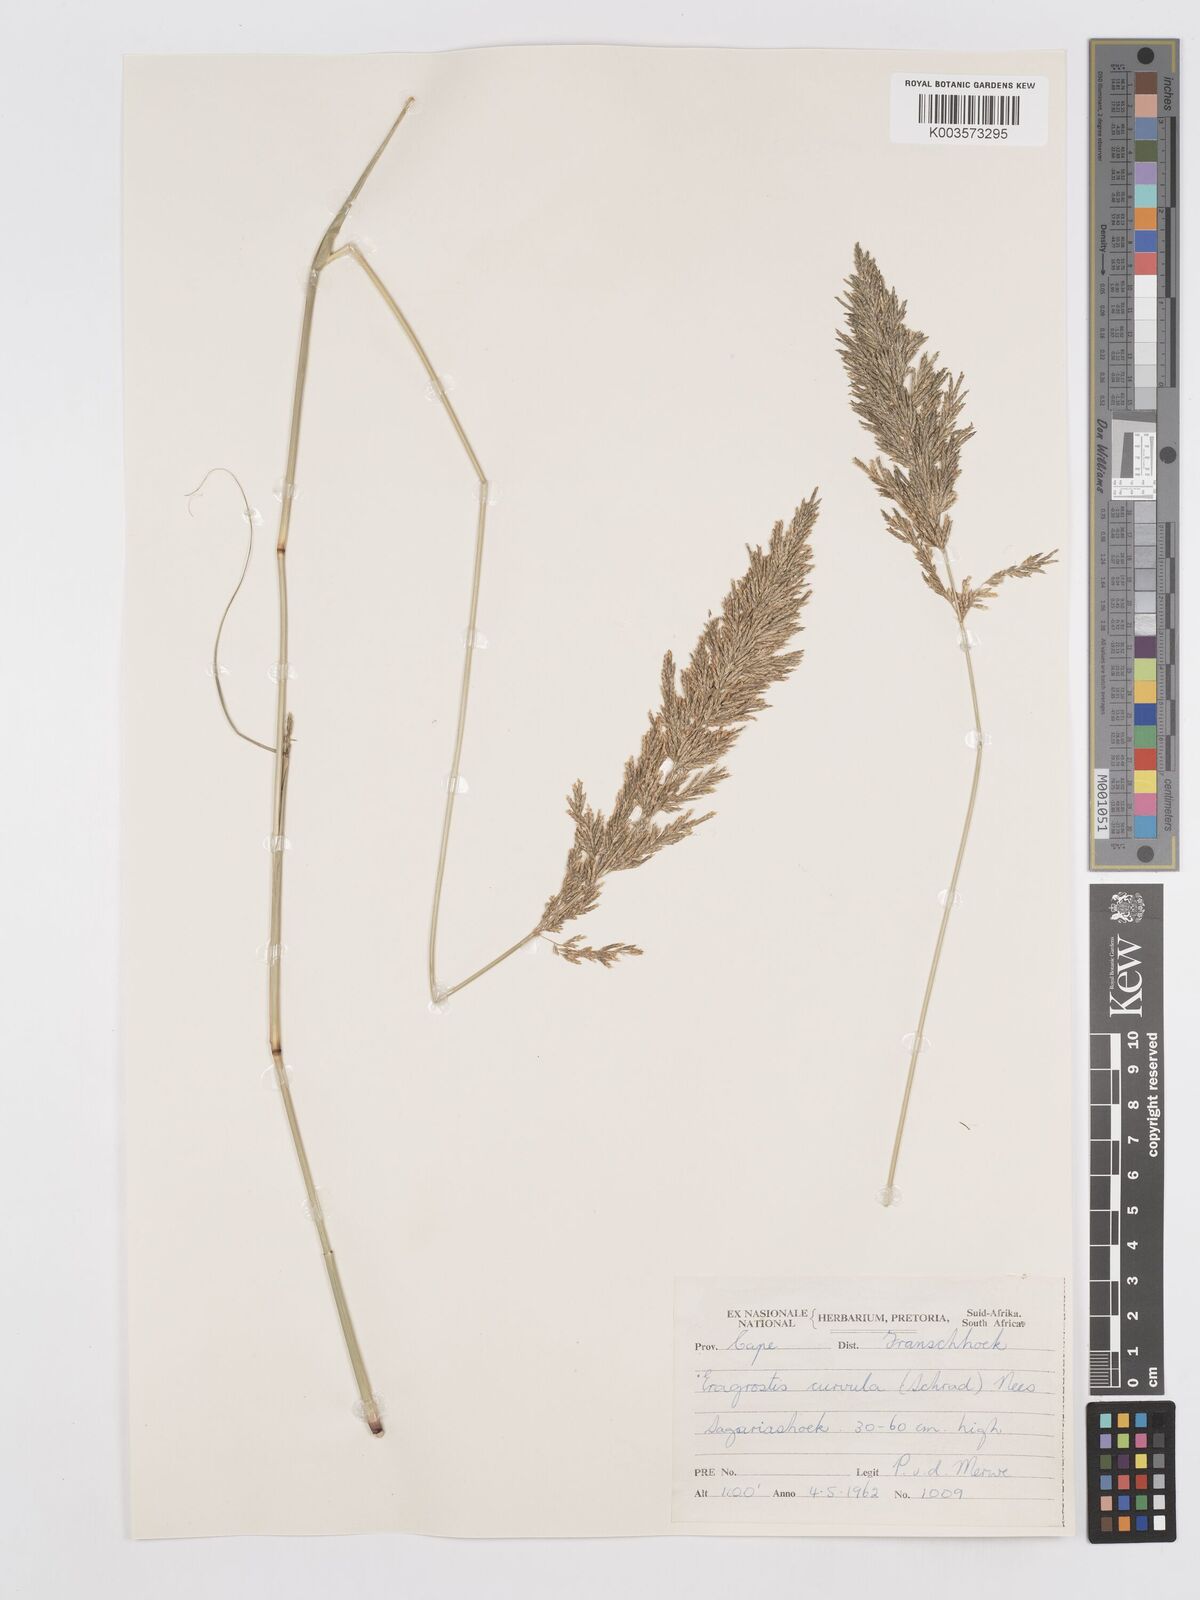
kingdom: Plantae
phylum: Tracheophyta
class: Liliopsida
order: Poales
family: Poaceae
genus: Eragrostis
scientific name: Eragrostis curvula
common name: African love-grass
